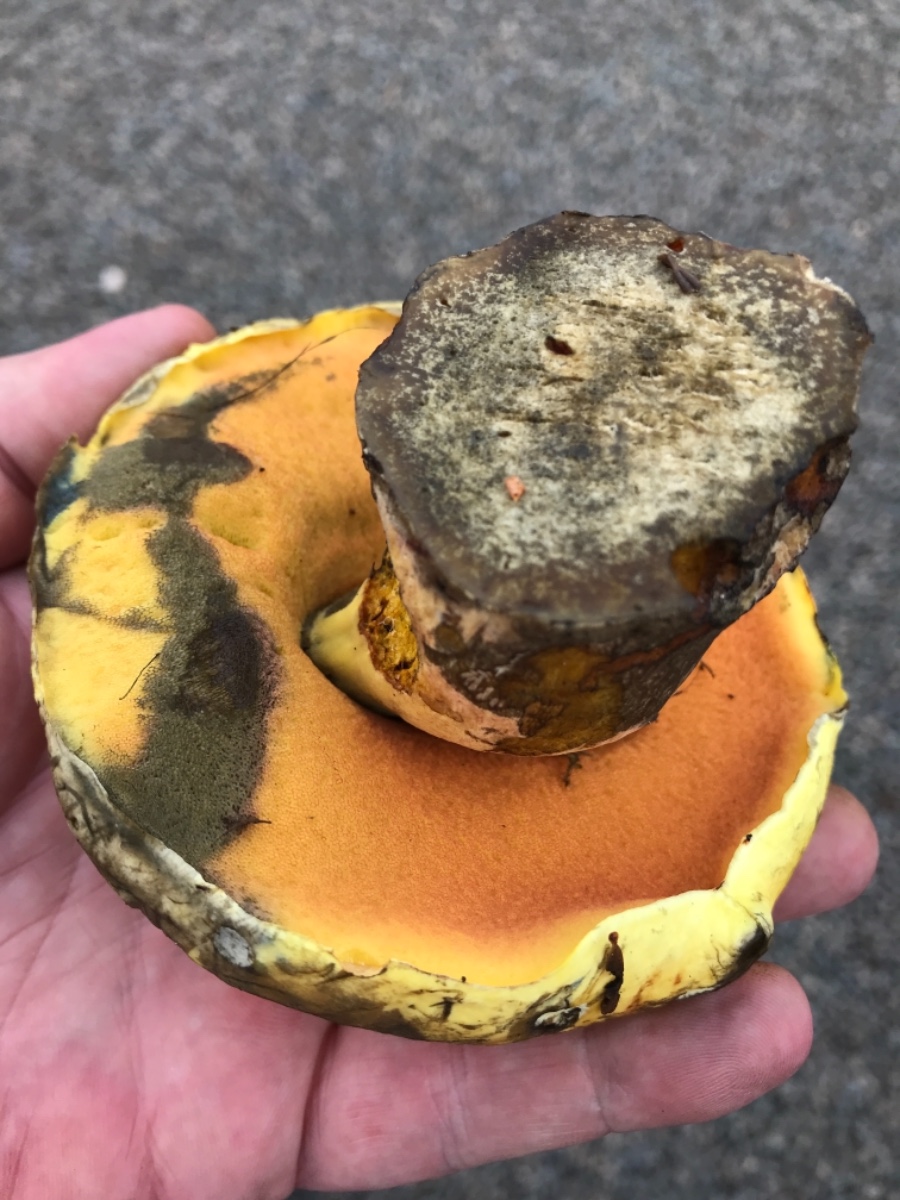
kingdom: Fungi
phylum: Basidiomycota
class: Agaricomycetes
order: Boletales
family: Boletaceae
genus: Neoboletus
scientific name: Neoboletus praestigiator
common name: gul indigorørhat
